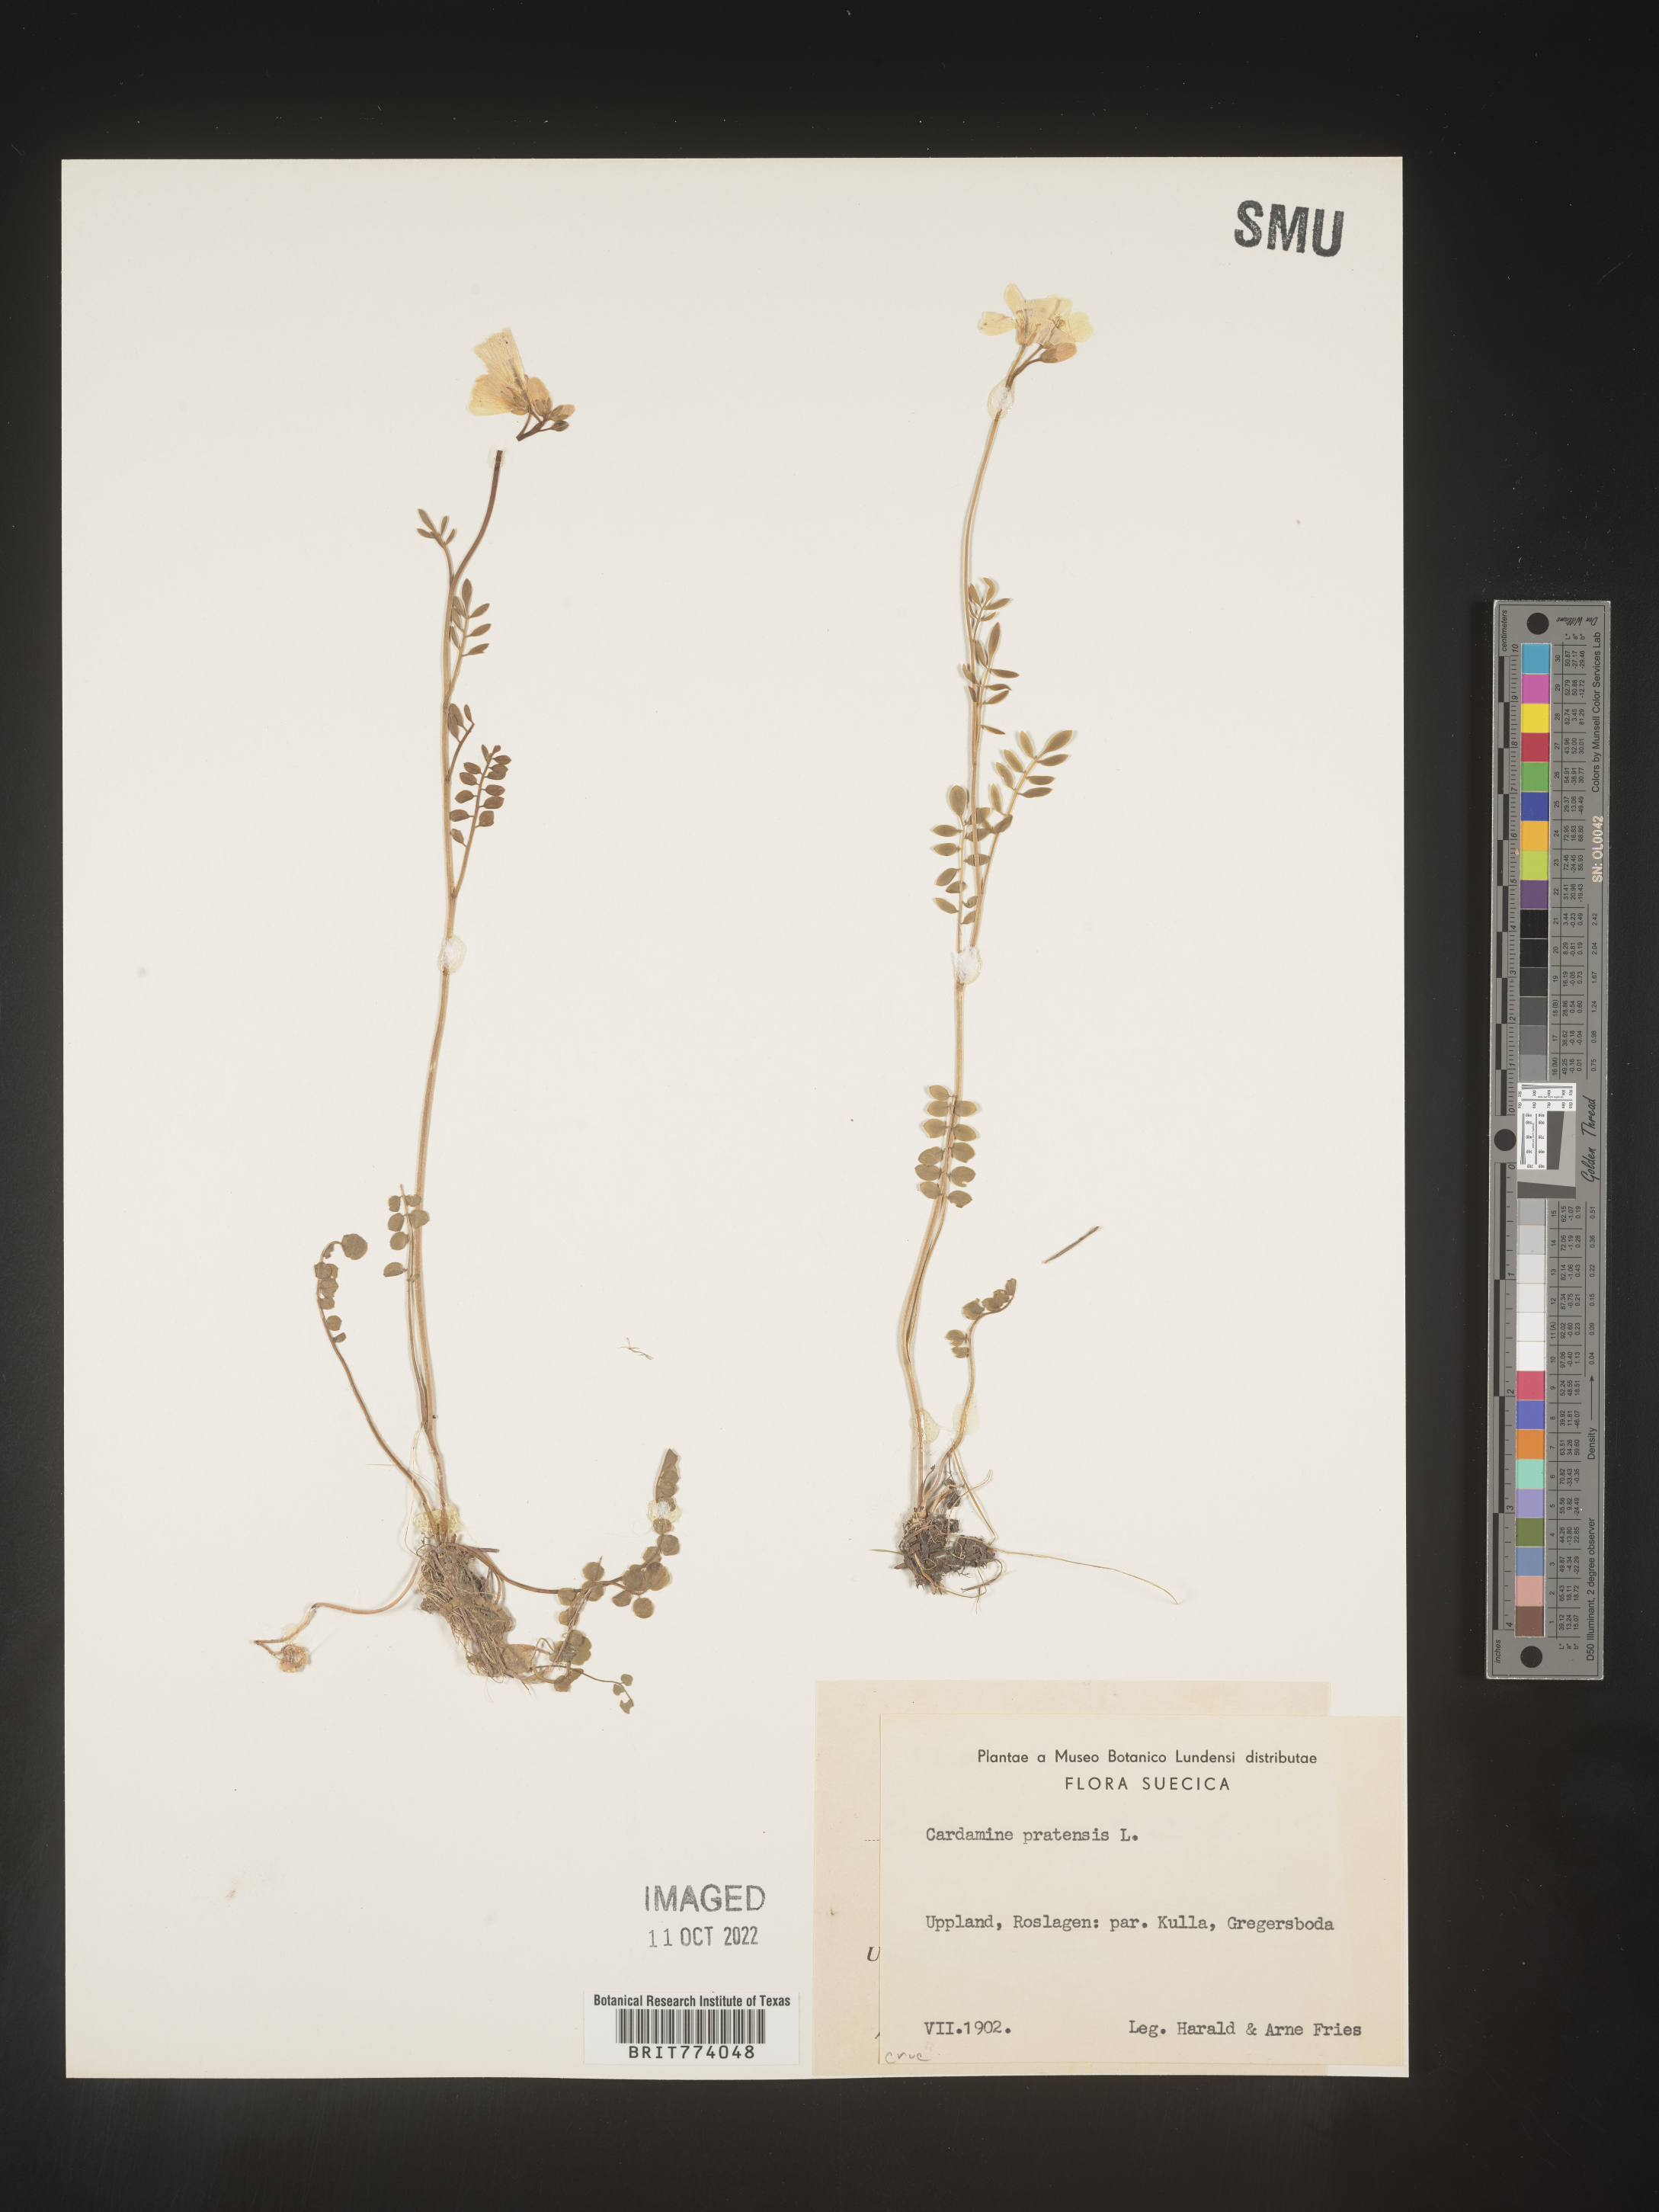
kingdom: Plantae
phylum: Tracheophyta
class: Magnoliopsida
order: Brassicales
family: Brassicaceae
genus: Cardamine
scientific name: Cardamine pratensis
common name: Cuckoo flower
